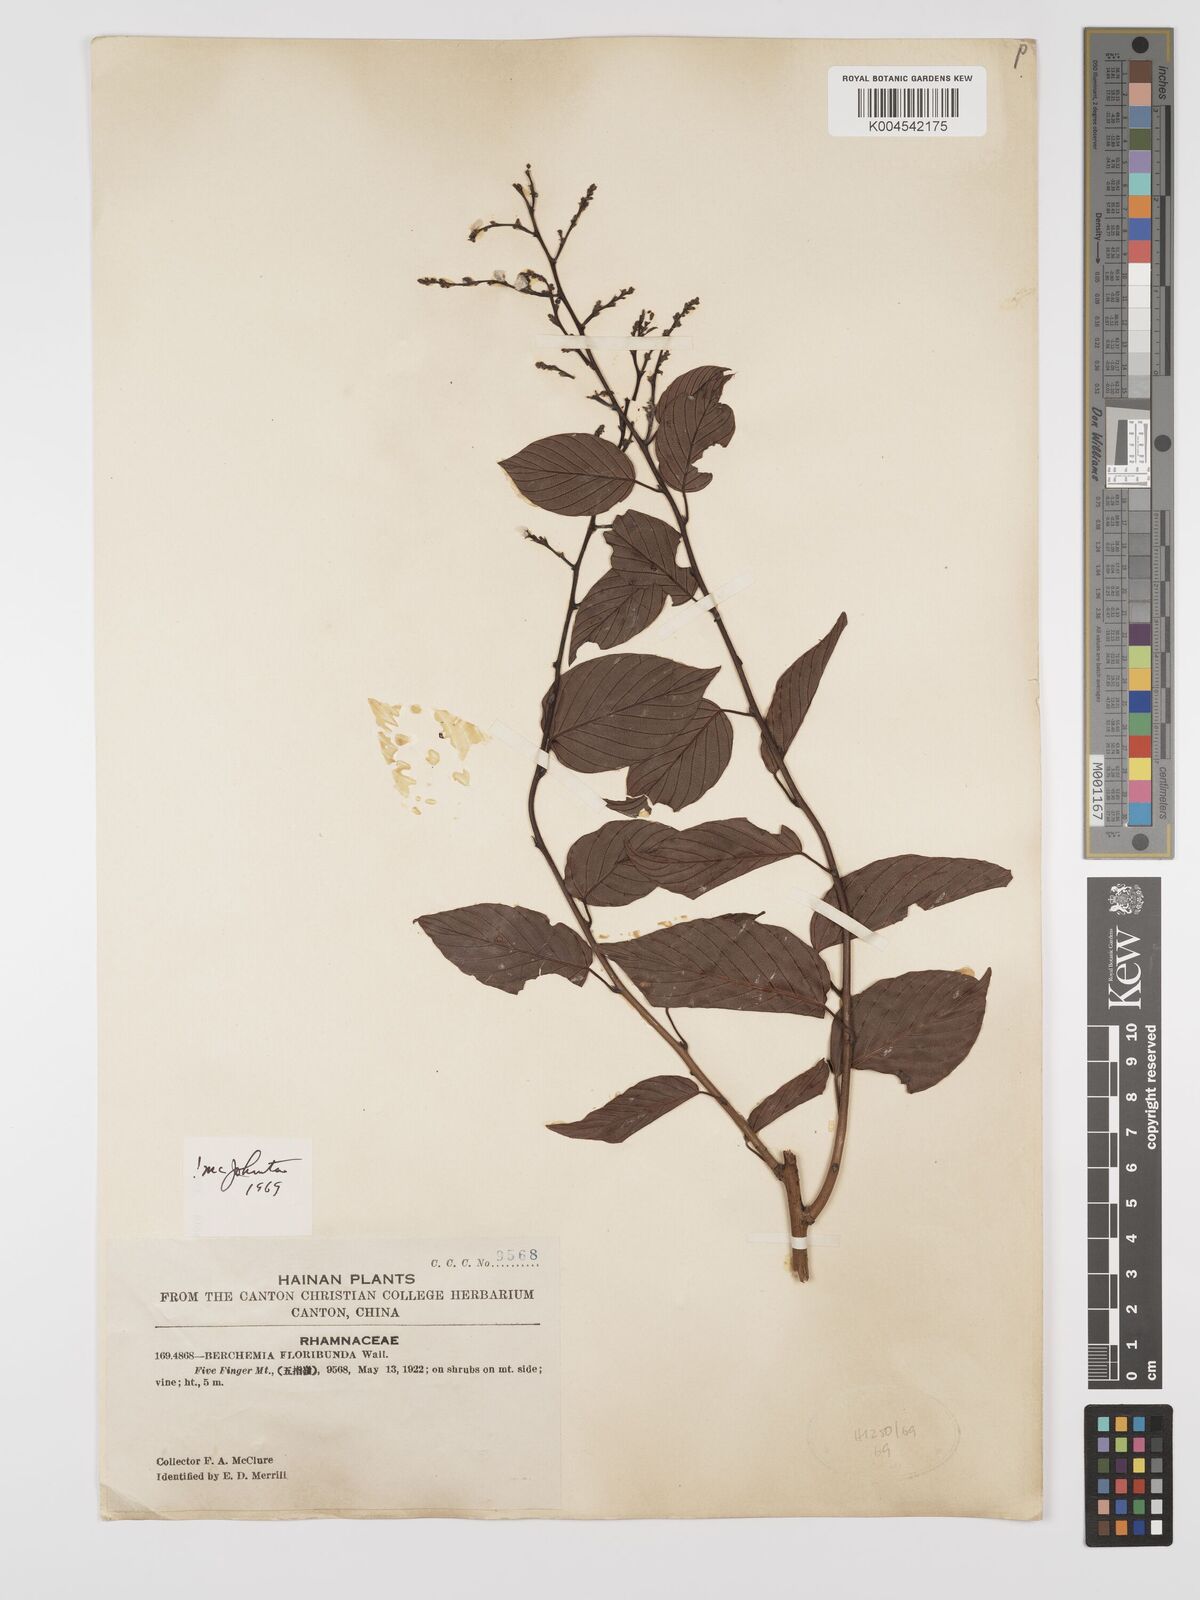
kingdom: Plantae
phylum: Tracheophyta
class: Magnoliopsida
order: Rosales
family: Rhamnaceae
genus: Berchemia
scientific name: Berchemia floribunda
